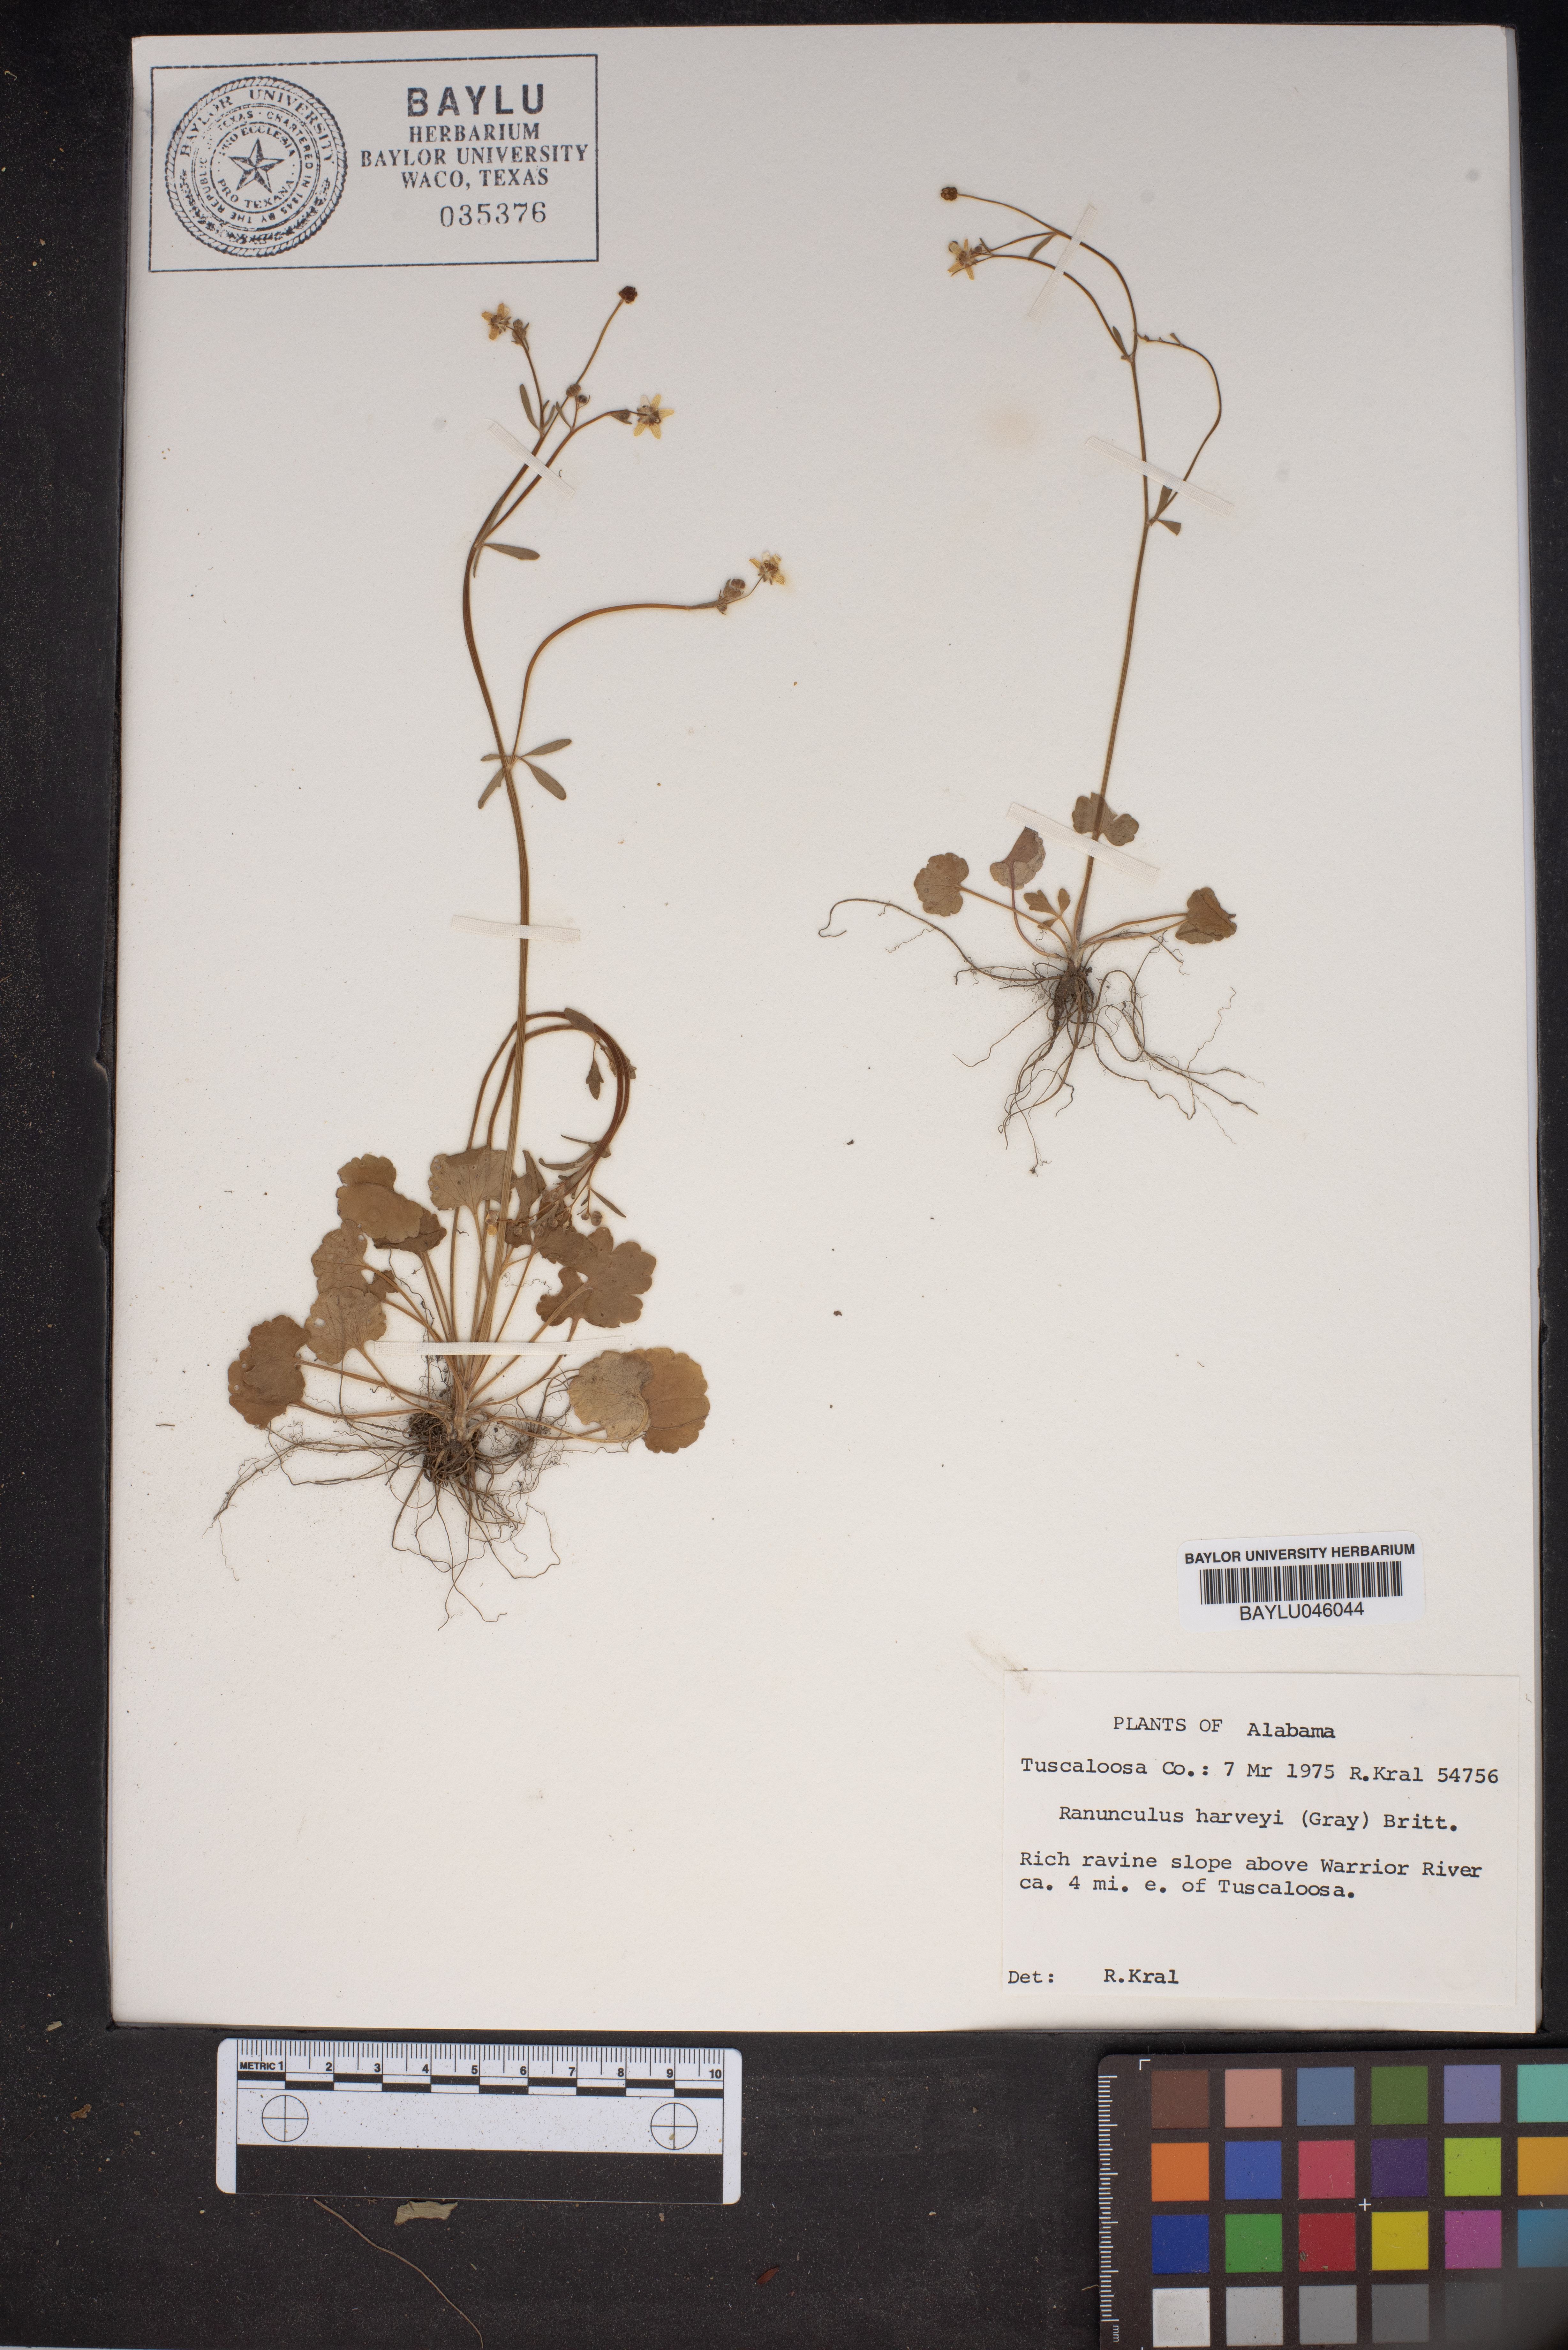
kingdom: Plantae
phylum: Tracheophyta
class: Magnoliopsida
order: Ranunculales
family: Ranunculaceae
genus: Ranunculus
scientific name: Ranunculus harveyi
